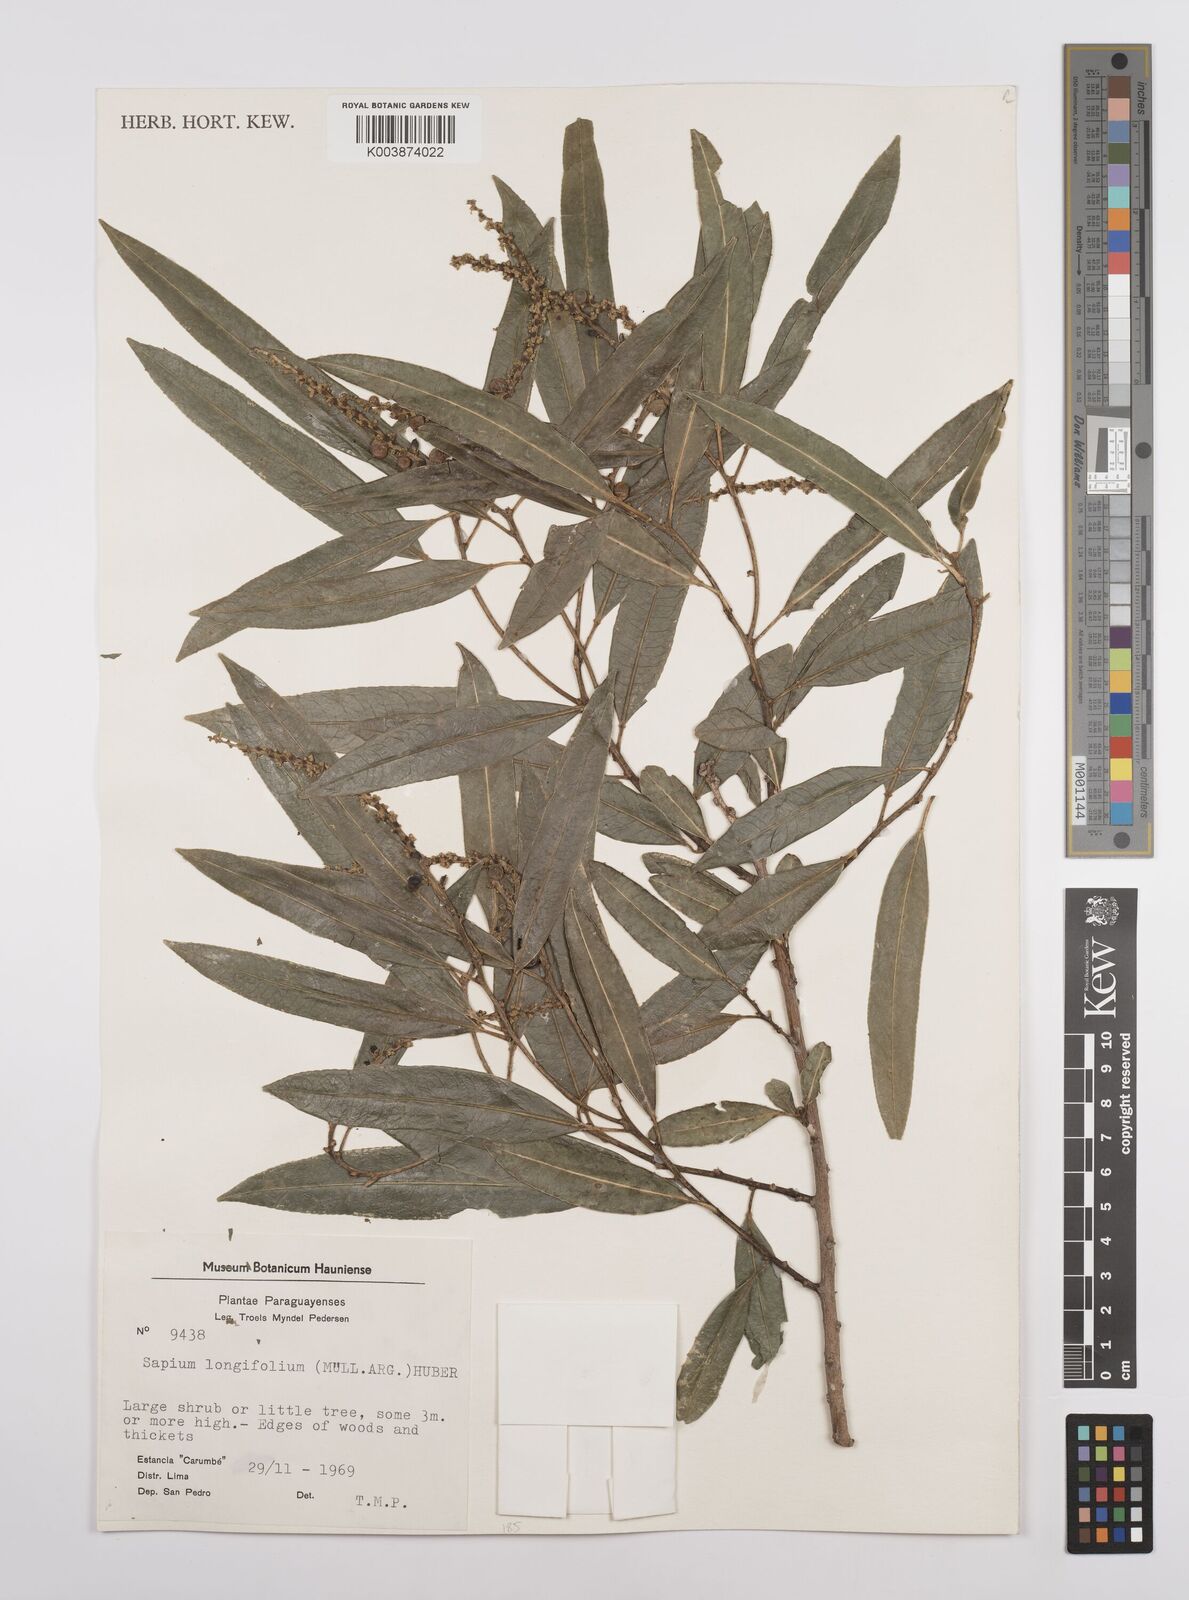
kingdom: Plantae
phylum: Tracheophyta
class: Magnoliopsida
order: Malpighiales
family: Euphorbiaceae
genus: Sapium
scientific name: Sapium haematospermum
